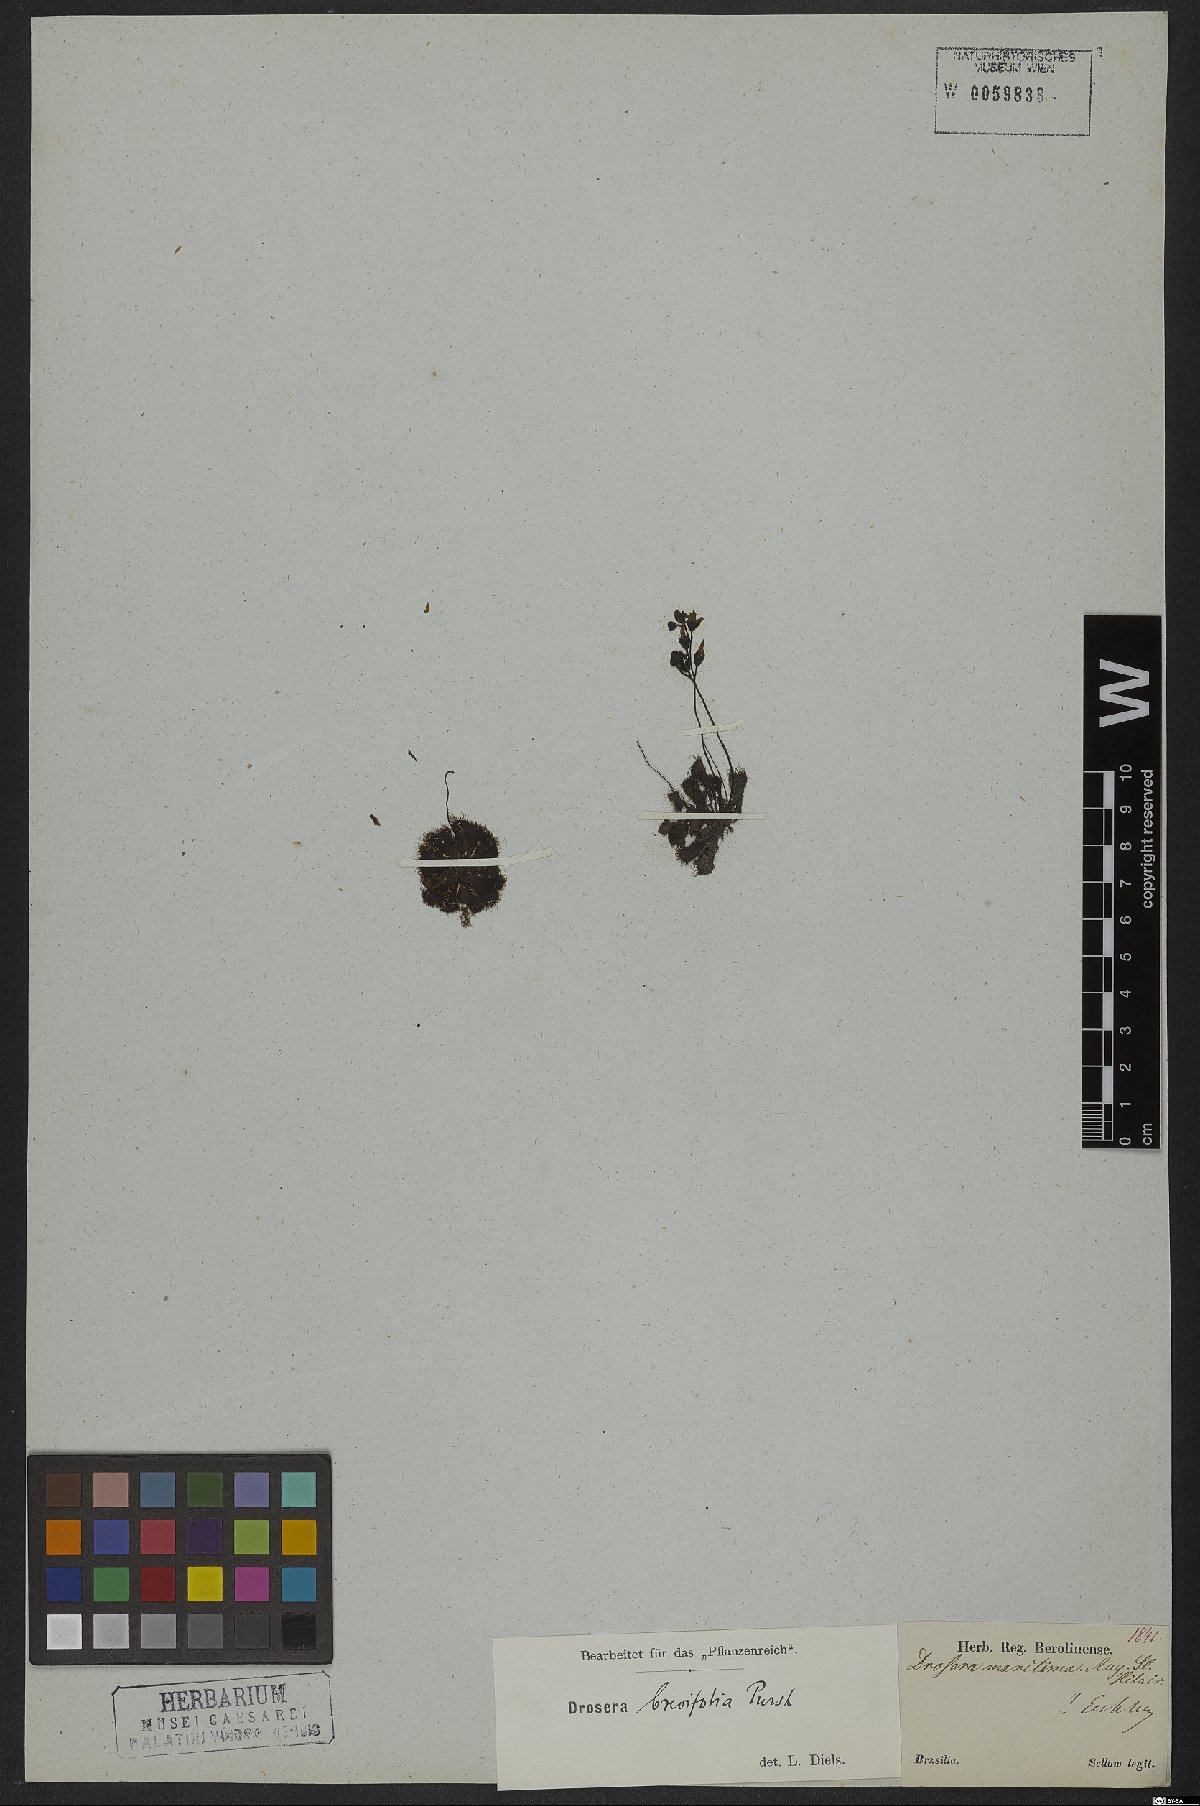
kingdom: Plantae
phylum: Tracheophyta
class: Magnoliopsida
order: Caryophyllales
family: Droseraceae
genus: Drosera
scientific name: Drosera brevifolia
